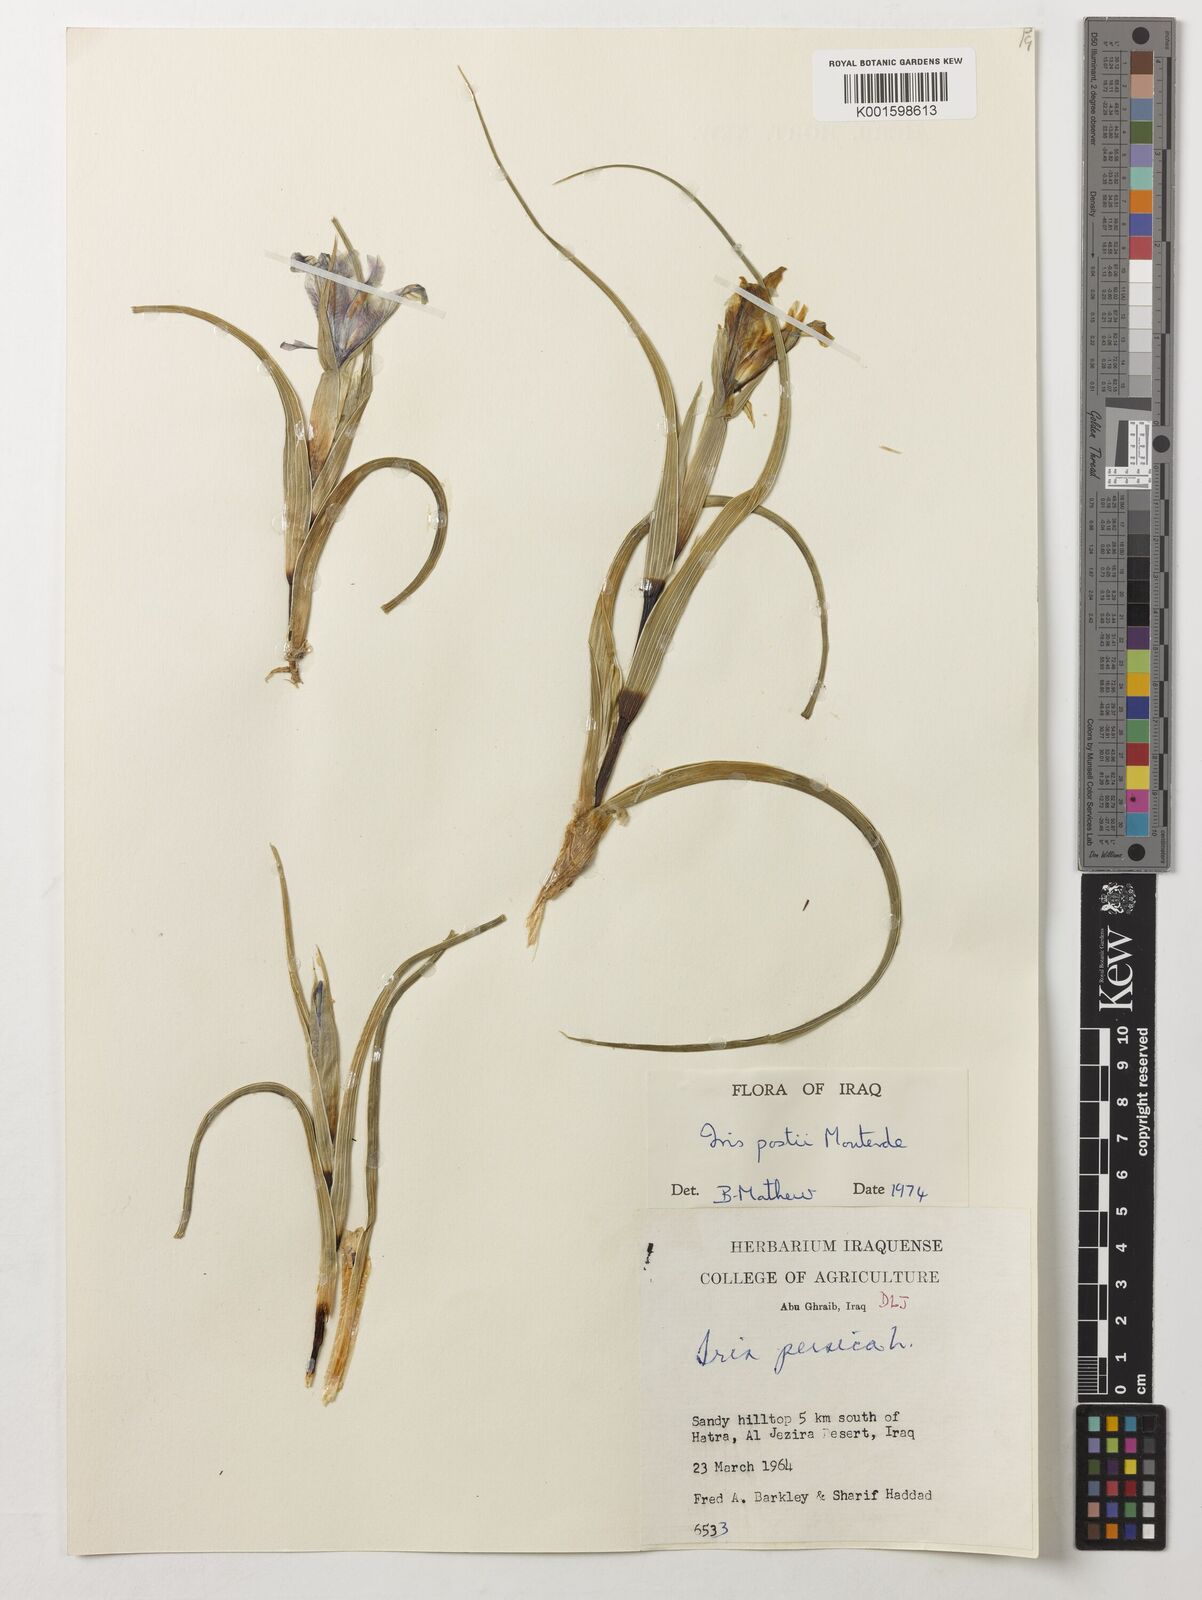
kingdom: Plantae
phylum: Tracheophyta
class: Liliopsida
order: Asparagales
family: Iridaceae
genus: Iris
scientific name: Iris postii
